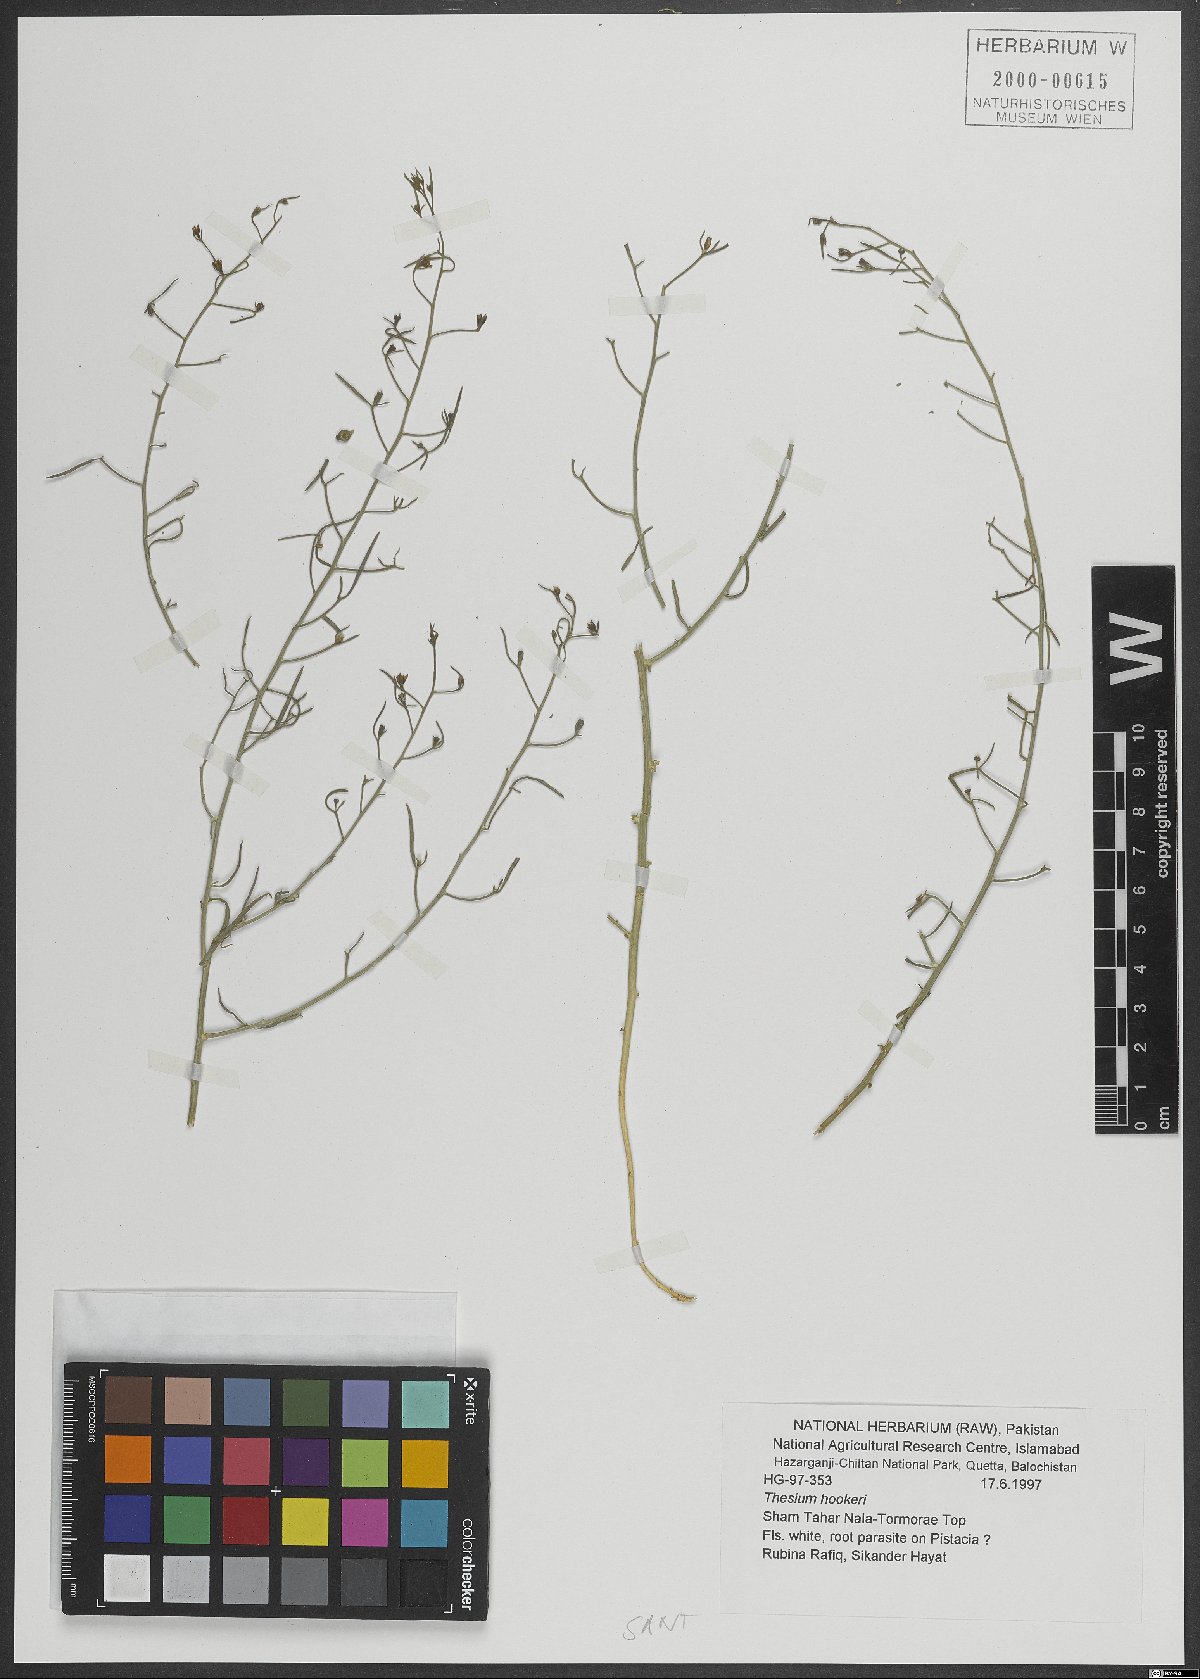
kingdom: Plantae
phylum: Tracheophyta
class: Magnoliopsida
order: Santalales
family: Thesiaceae
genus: Thesium
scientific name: Thesium hookeri
